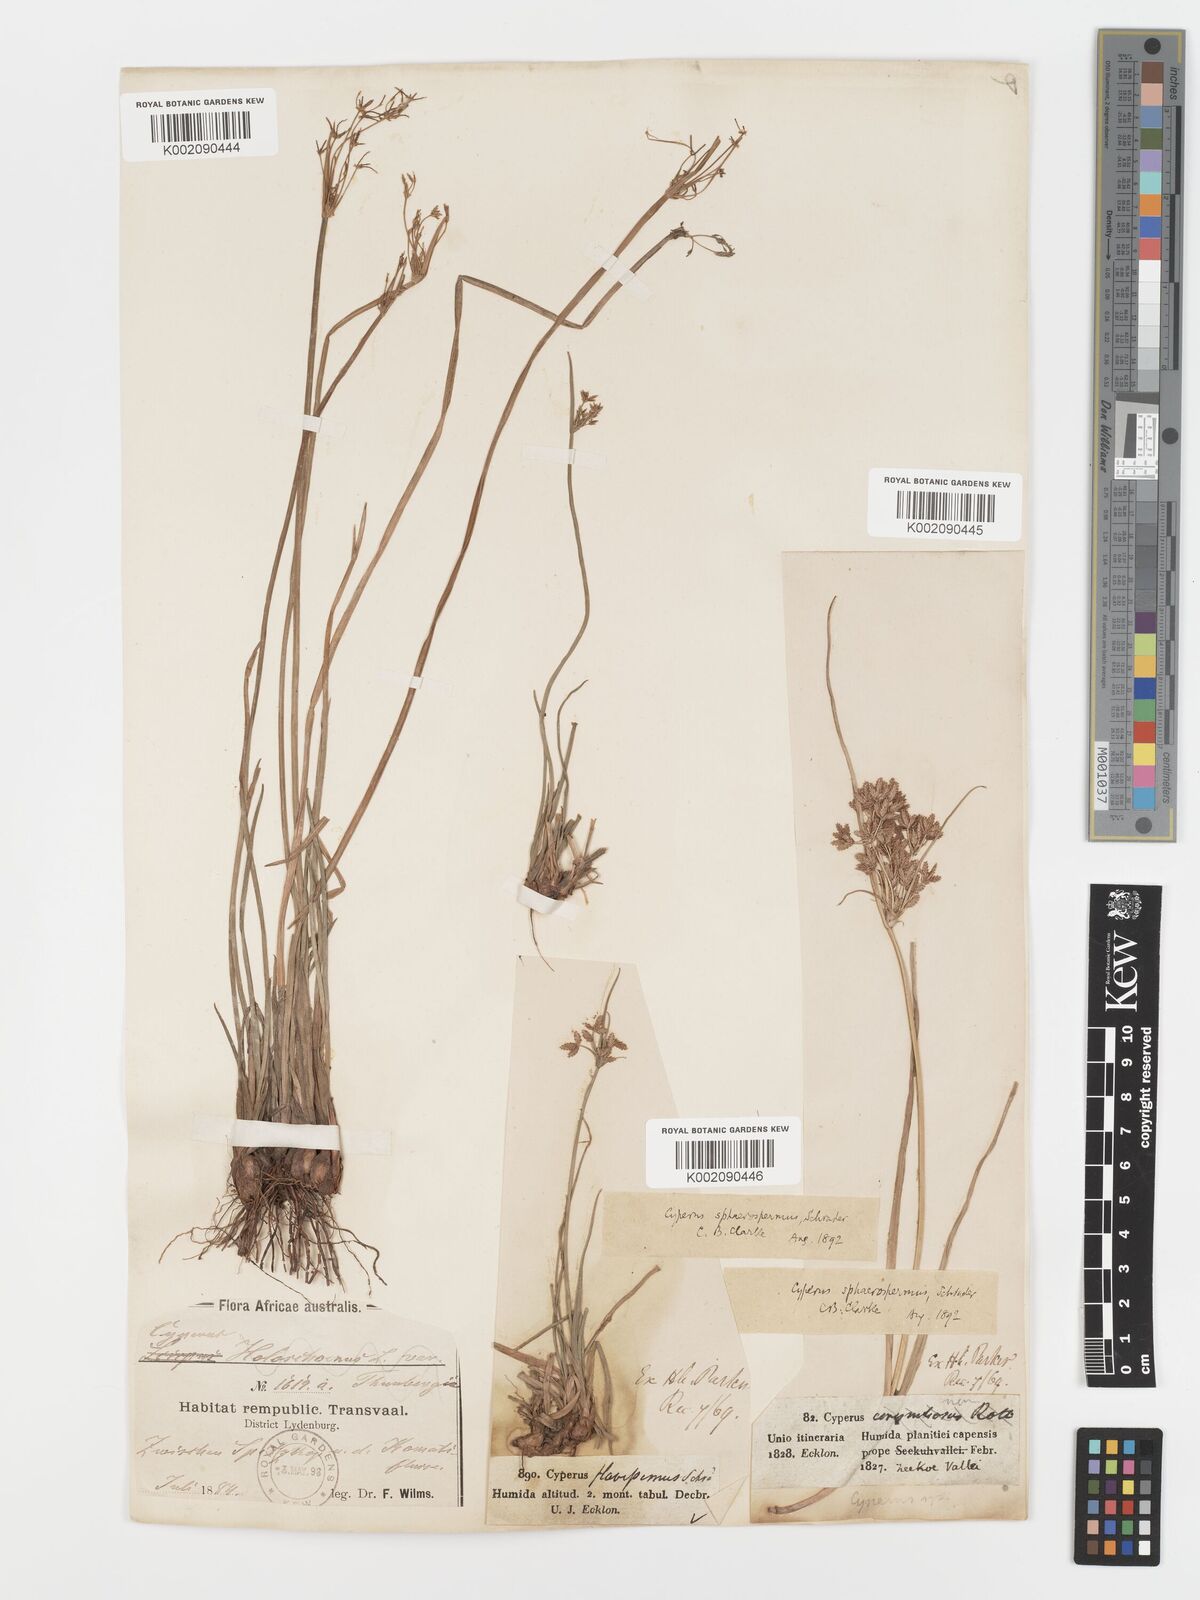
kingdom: Plantae
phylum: Tracheophyta
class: Liliopsida
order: Poales
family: Cyperaceae
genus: Cyperus
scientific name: Cyperus sphaerospermus
